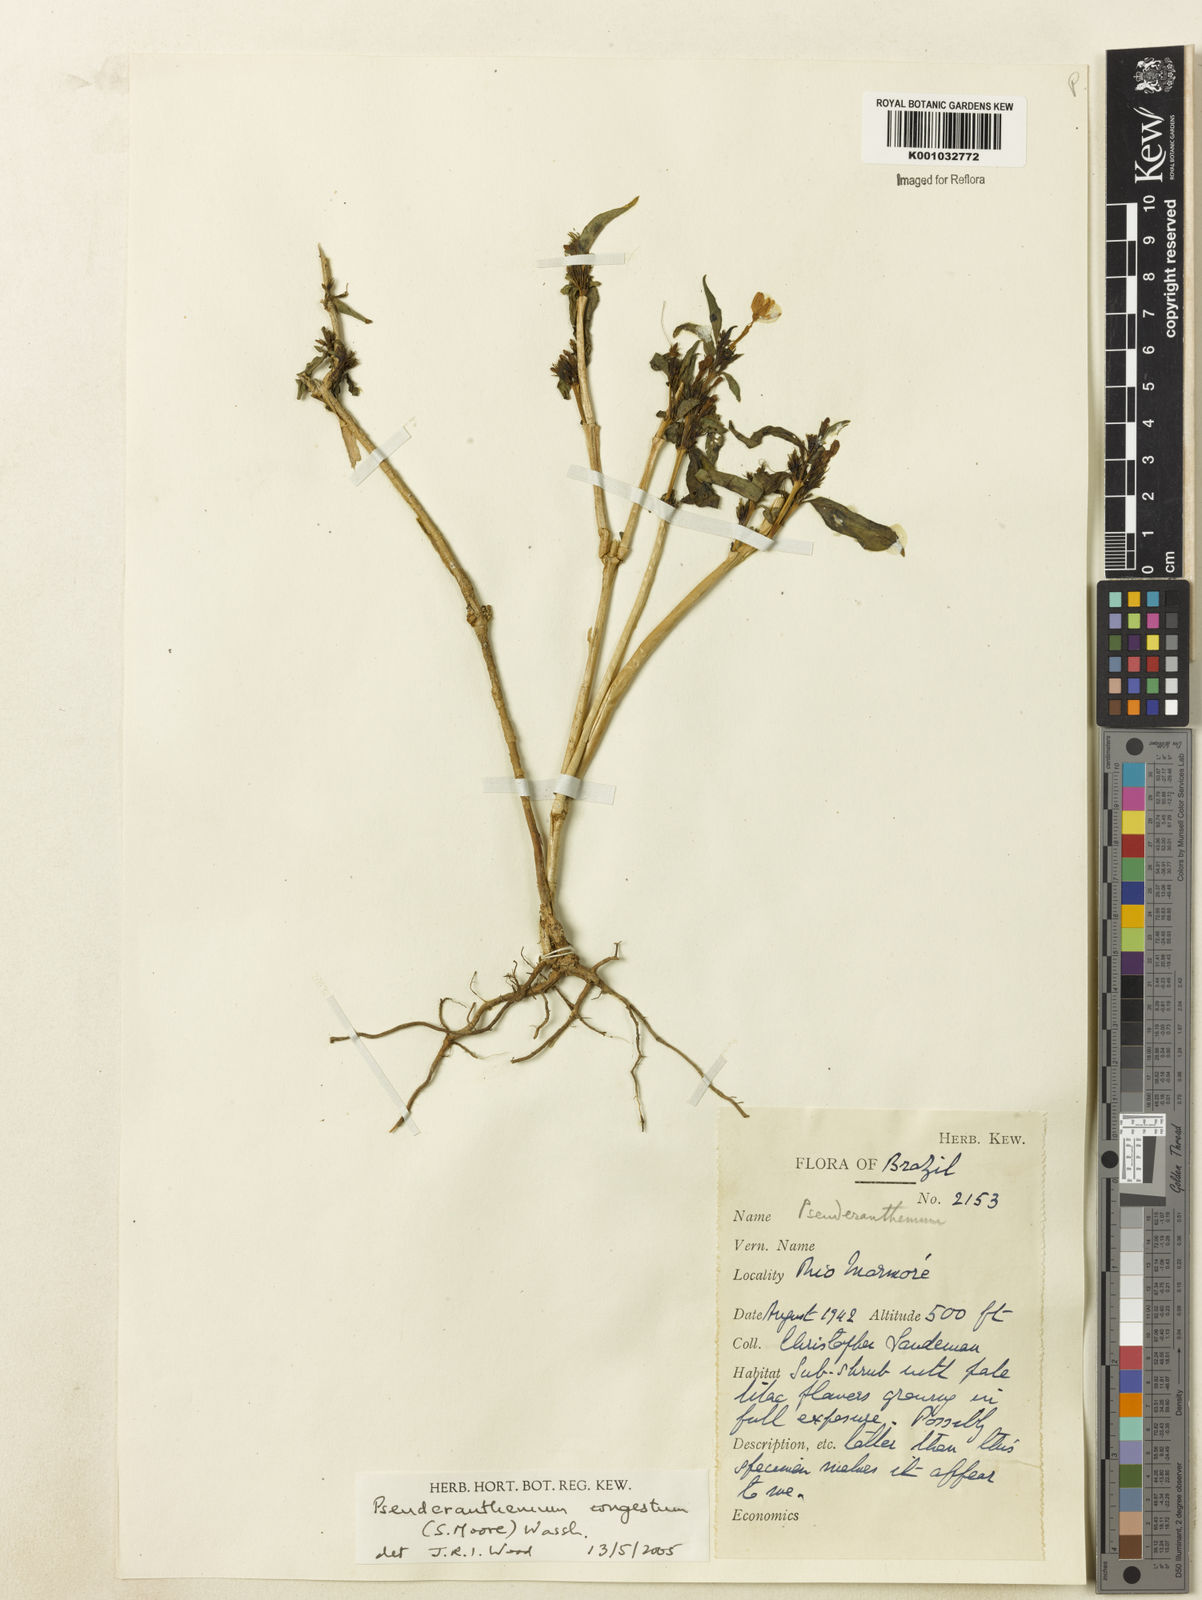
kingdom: Plantae
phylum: Tracheophyta
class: Magnoliopsida
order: Lamiales
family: Acanthaceae
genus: Pseuderanthemum
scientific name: Pseuderanthemum
